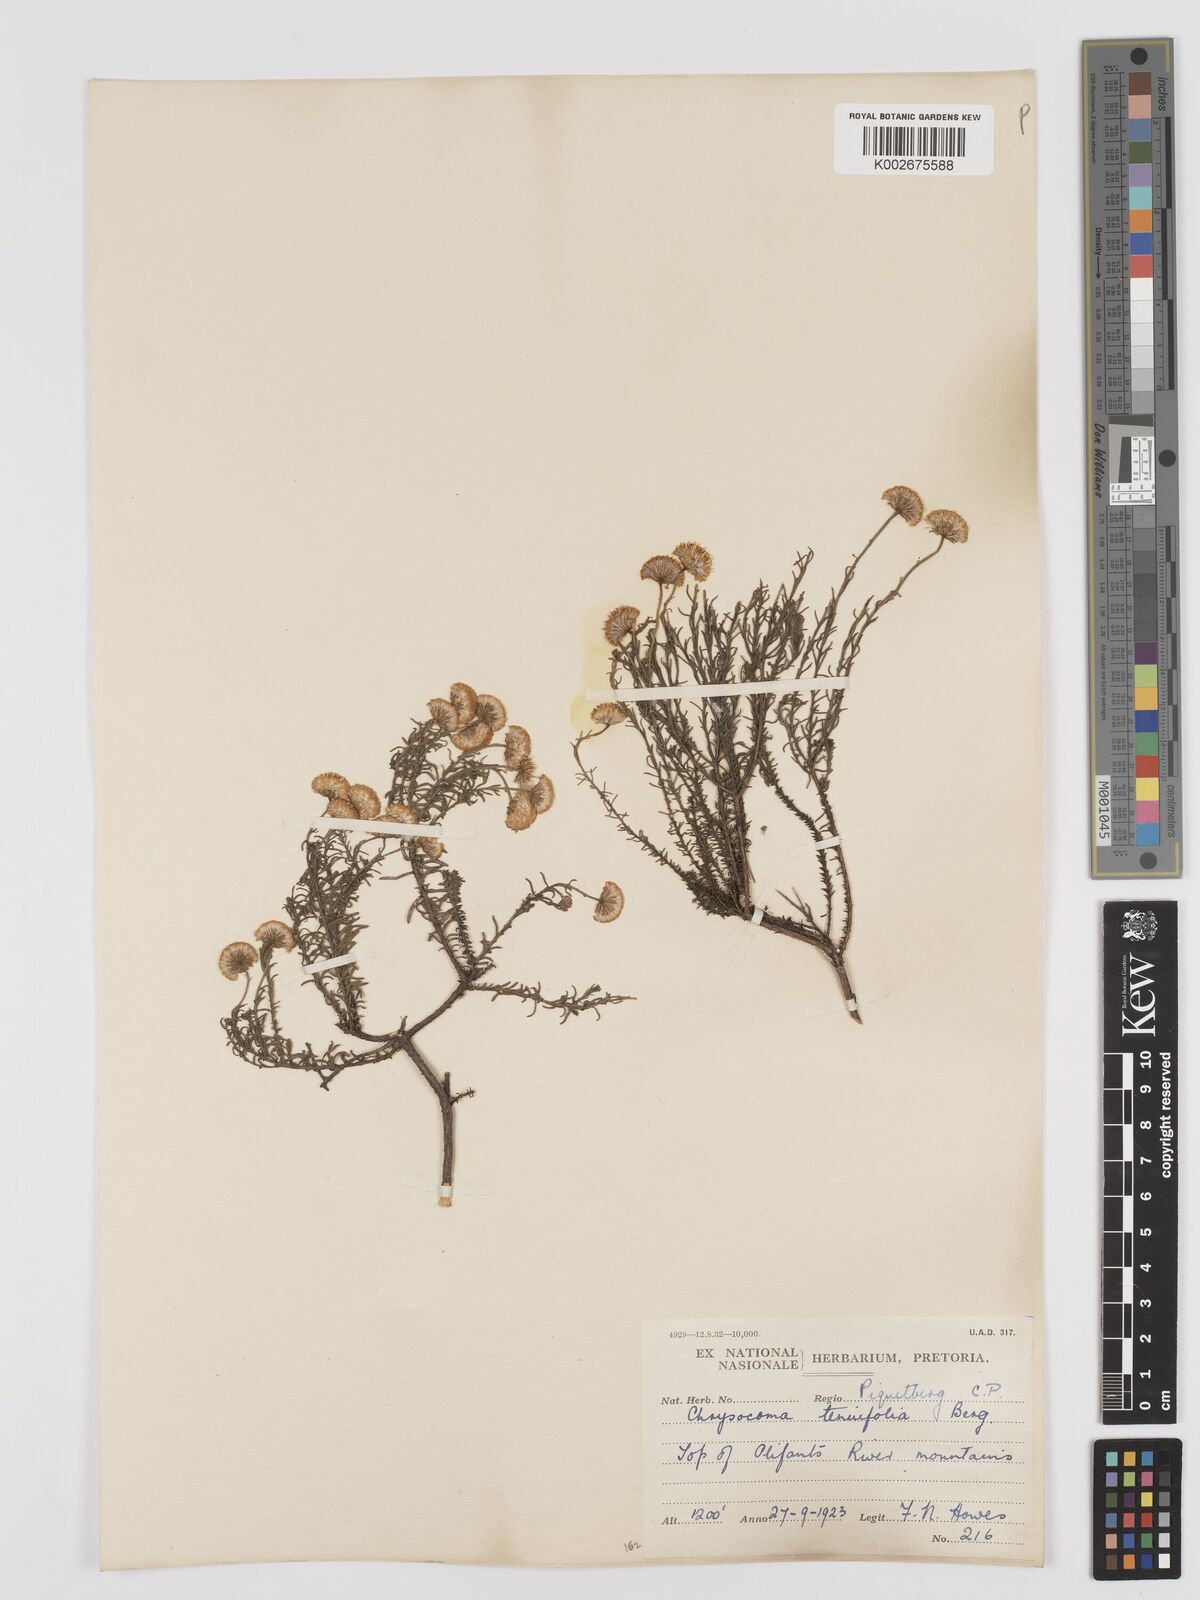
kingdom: Plantae
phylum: Tracheophyta
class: Magnoliopsida
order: Asterales
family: Asteraceae
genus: Chrysocoma
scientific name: Chrysocoma ciliata
